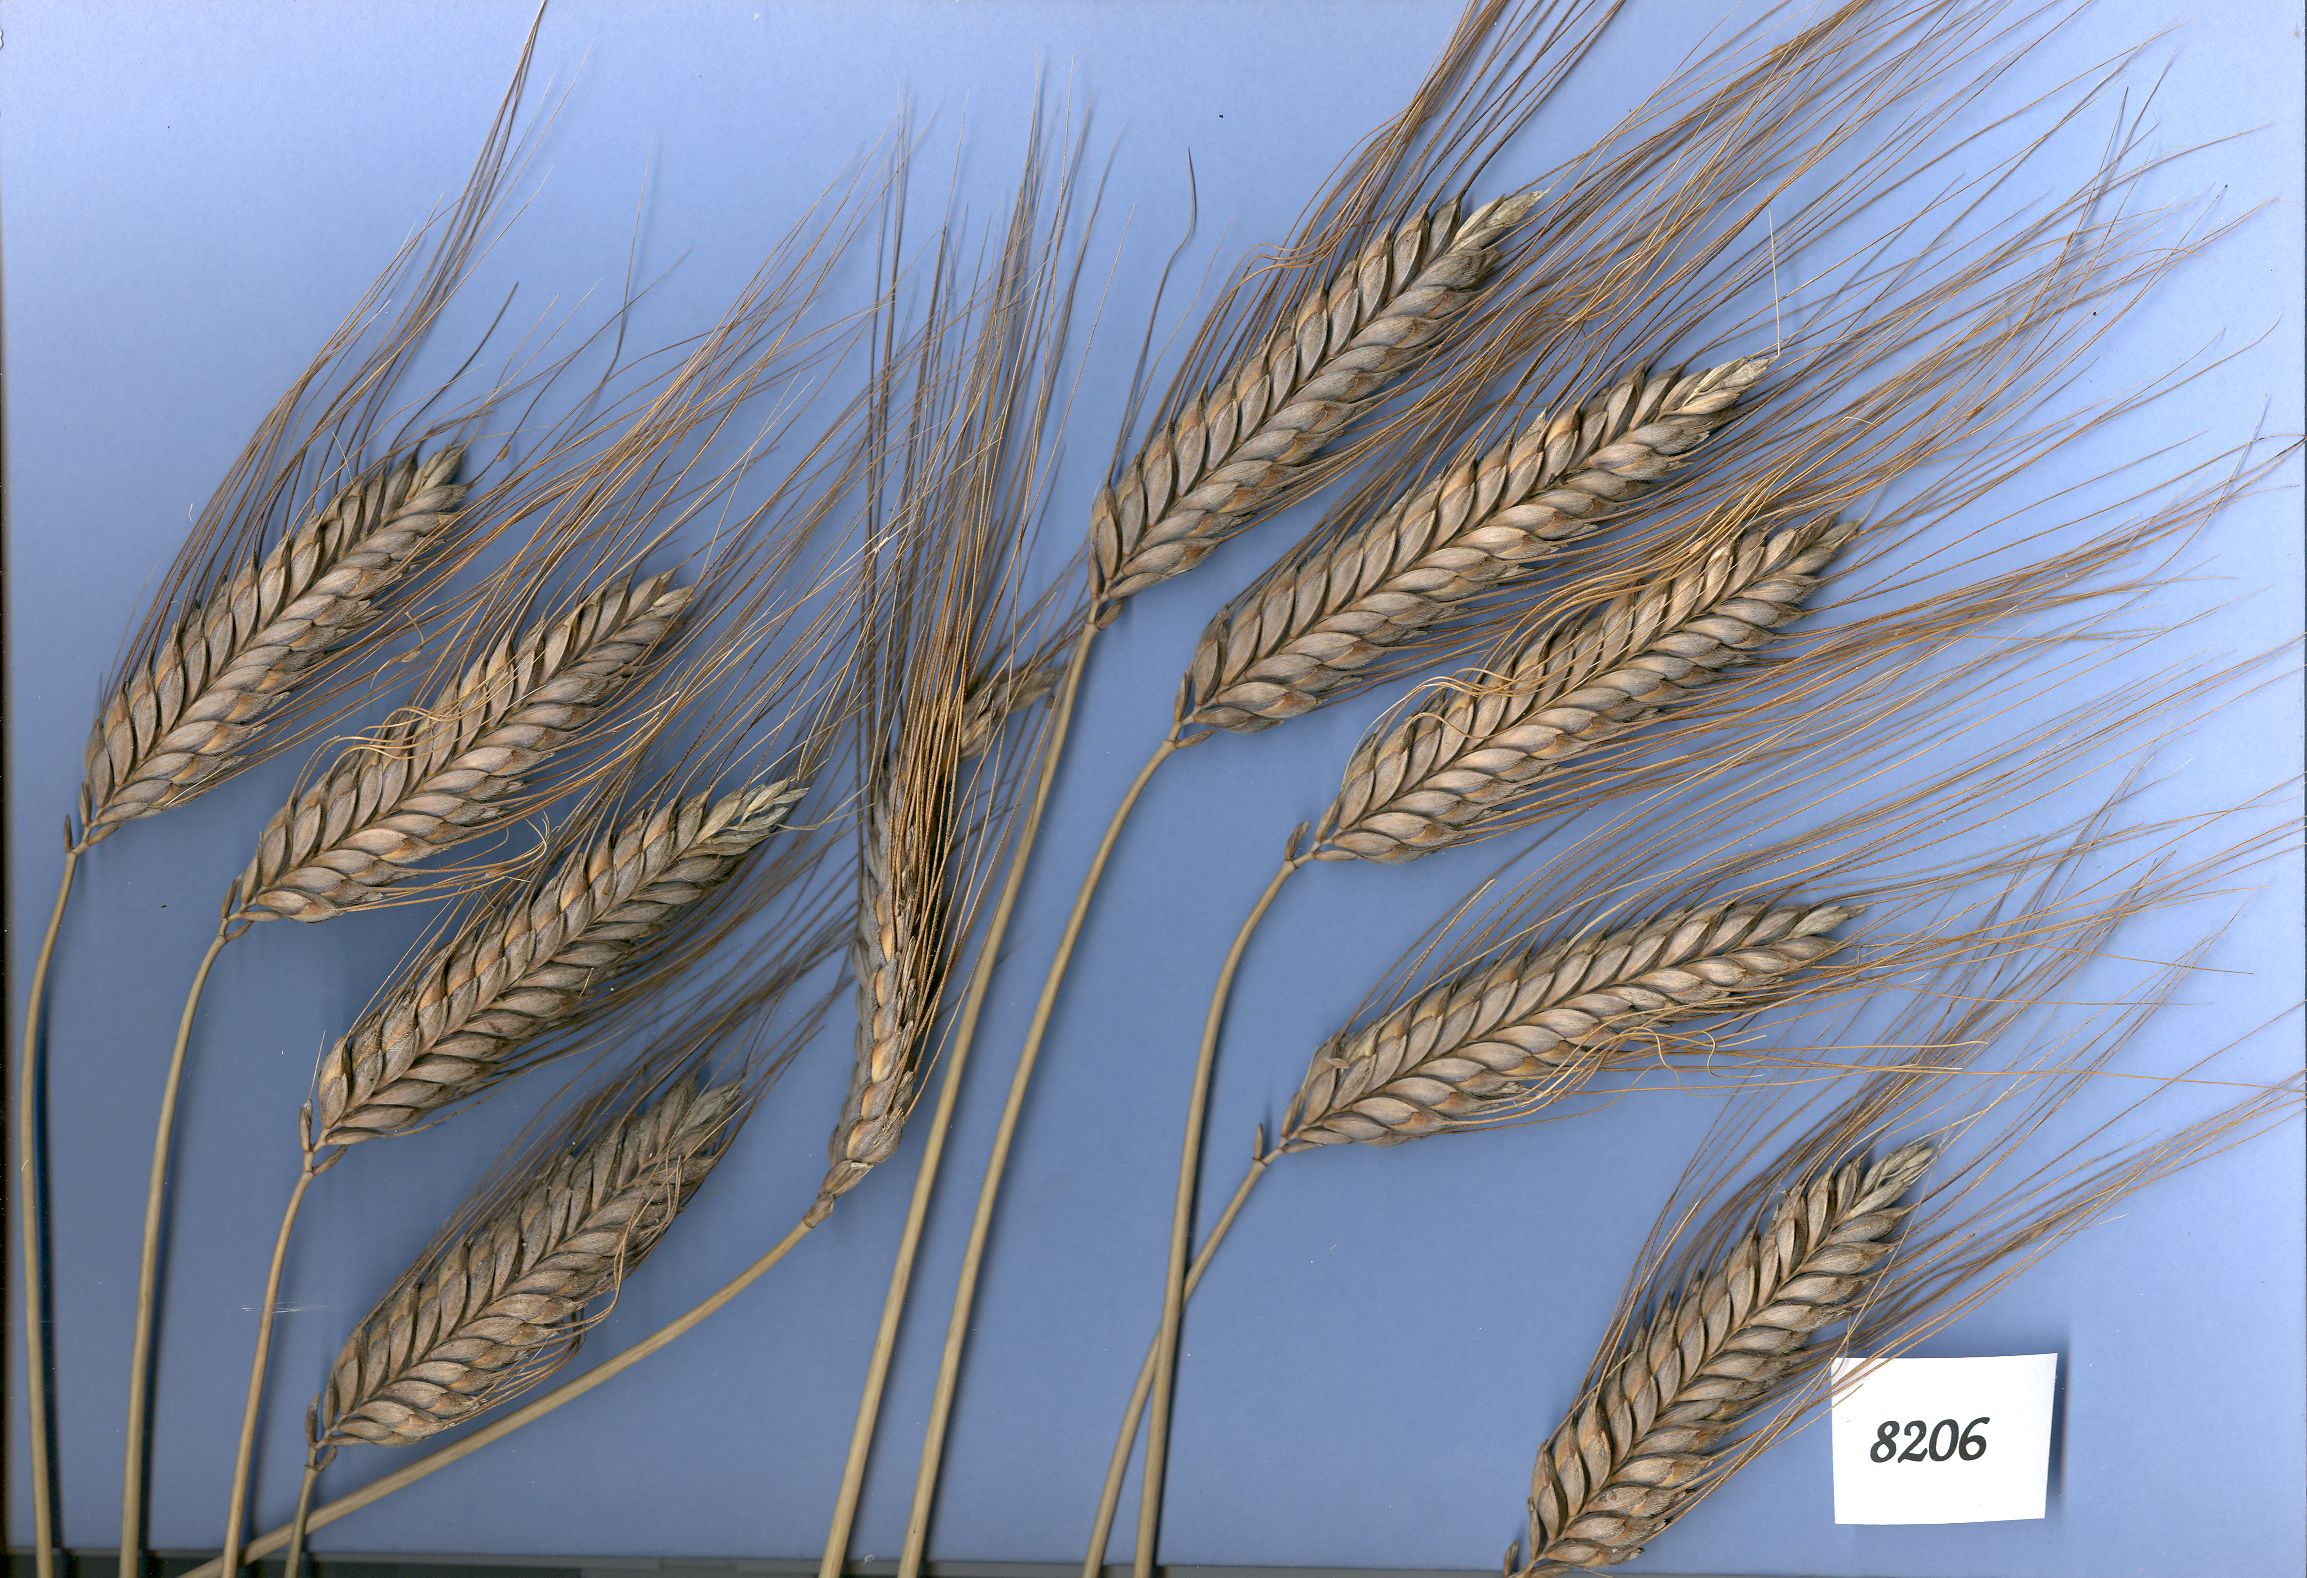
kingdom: Plantae
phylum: Tracheophyta
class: Liliopsida
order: Poales
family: Poaceae
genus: Triticum
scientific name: Triticum turgidum
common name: Rivet wheat
